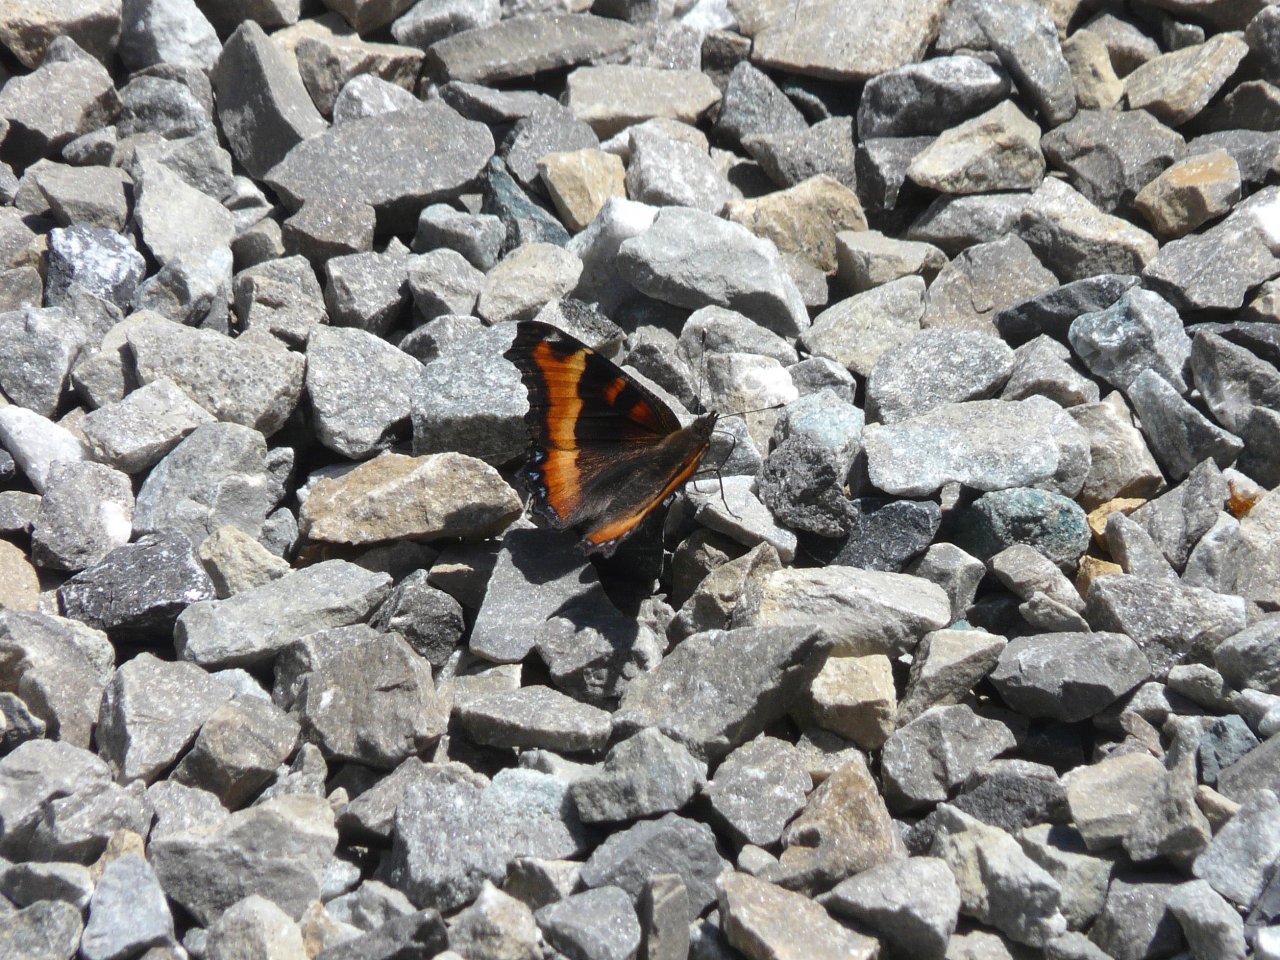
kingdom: Animalia
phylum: Arthropoda
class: Insecta
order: Lepidoptera
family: Nymphalidae
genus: Aglais
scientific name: Aglais milberti
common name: Milbert's Tortoiseshell
